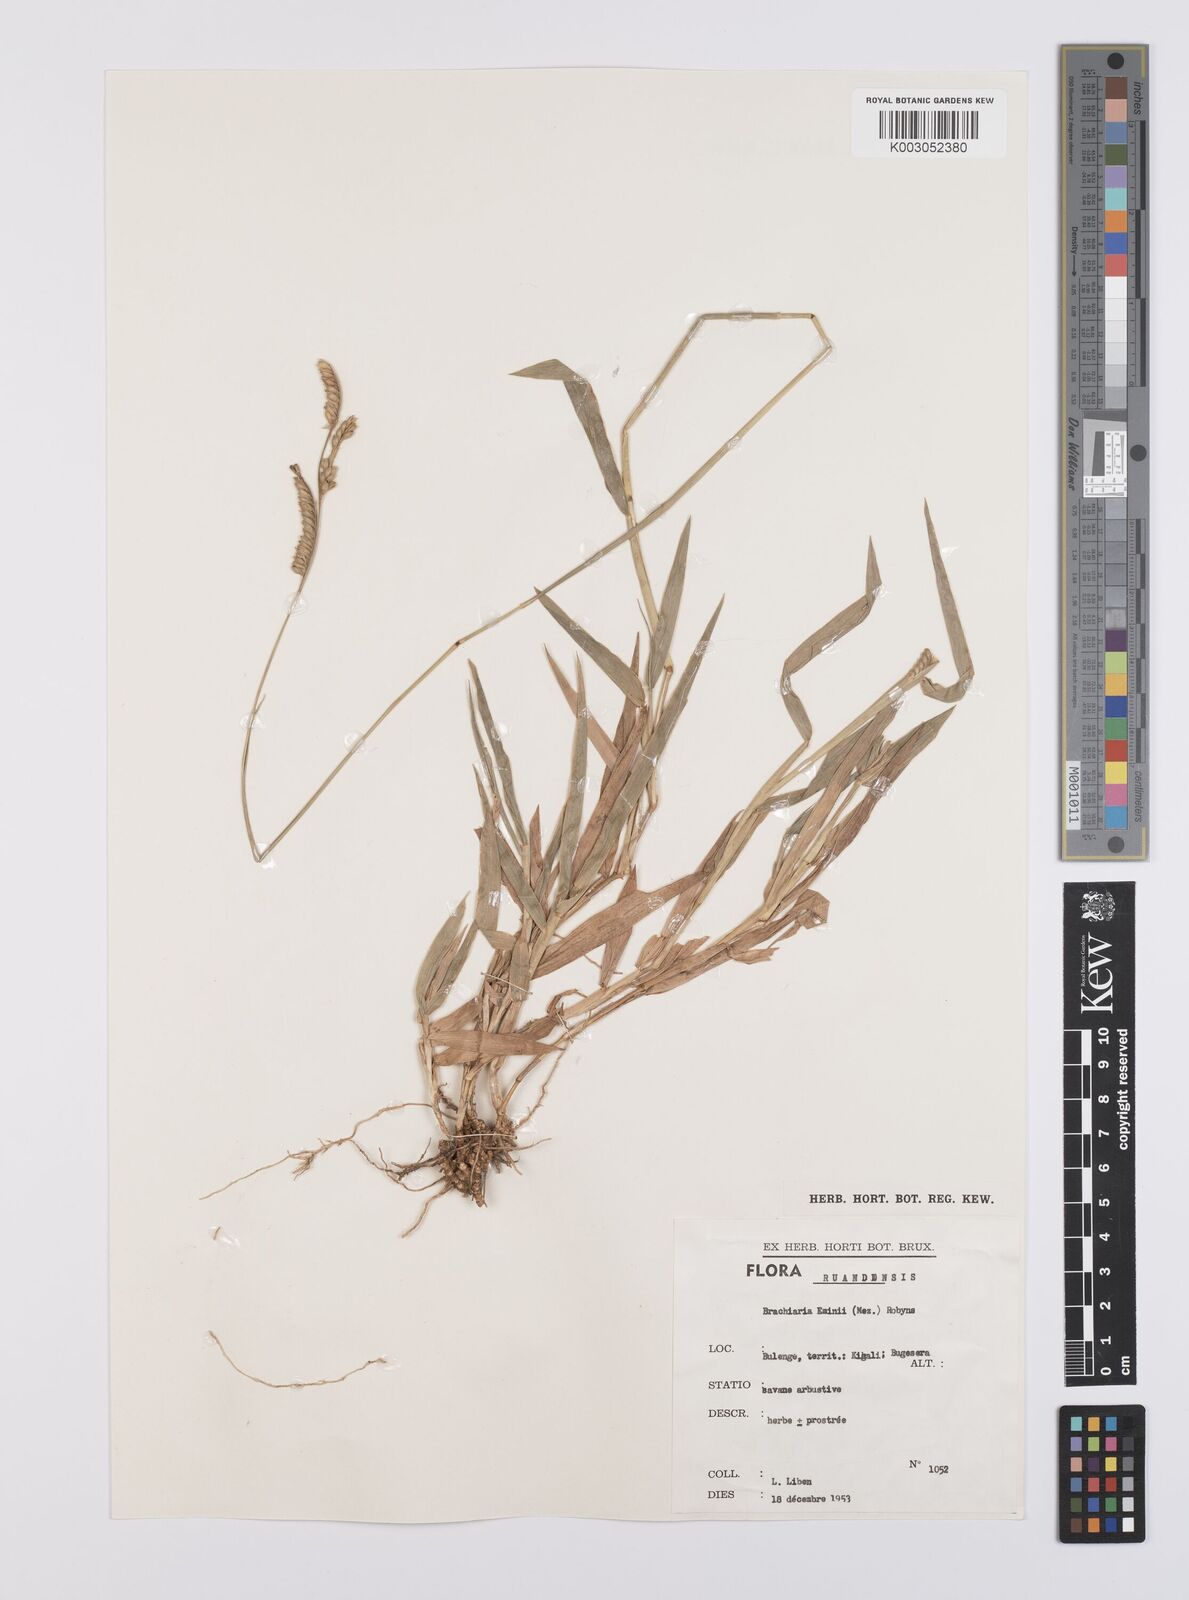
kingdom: Plantae
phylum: Tracheophyta
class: Liliopsida
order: Poales
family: Poaceae
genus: Urochloa
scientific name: Urochloa eminii
